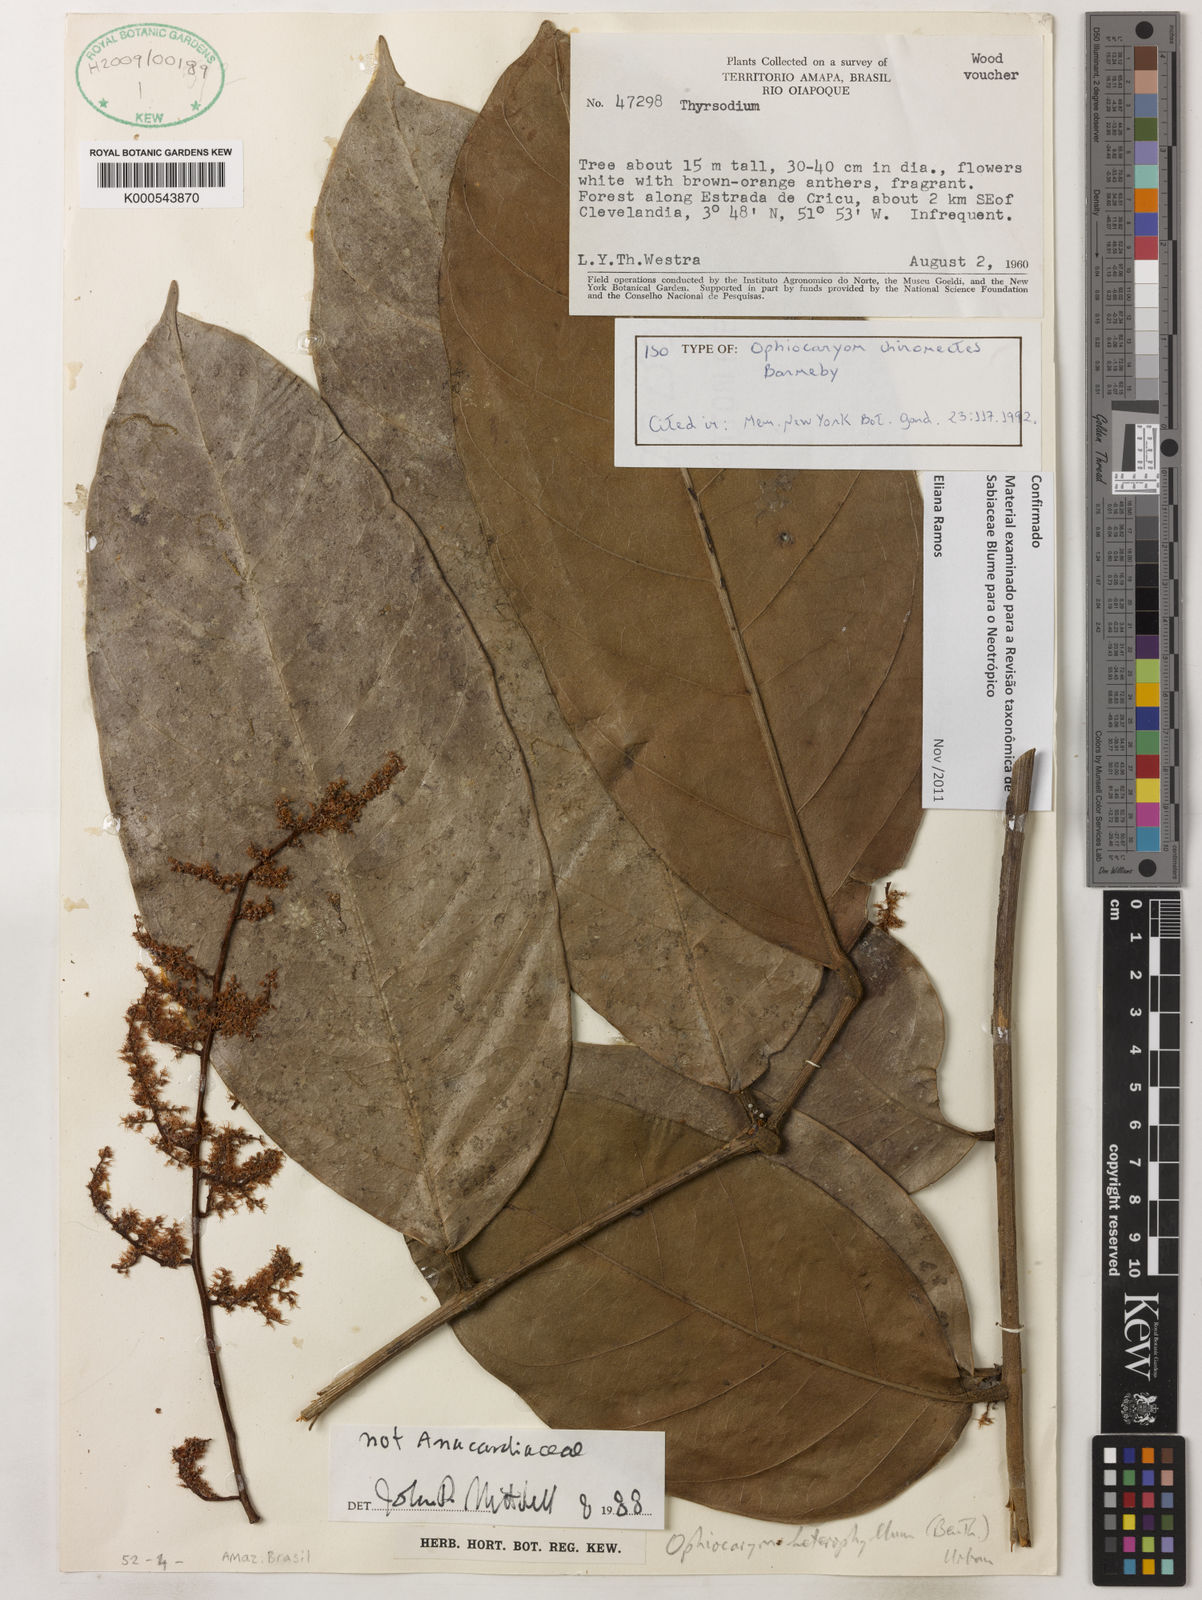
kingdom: Plantae
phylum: Tracheophyta
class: Magnoliopsida
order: Proteales
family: Sabiaceae
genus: Ophiocaryon
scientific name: Ophiocaryon chironectes
